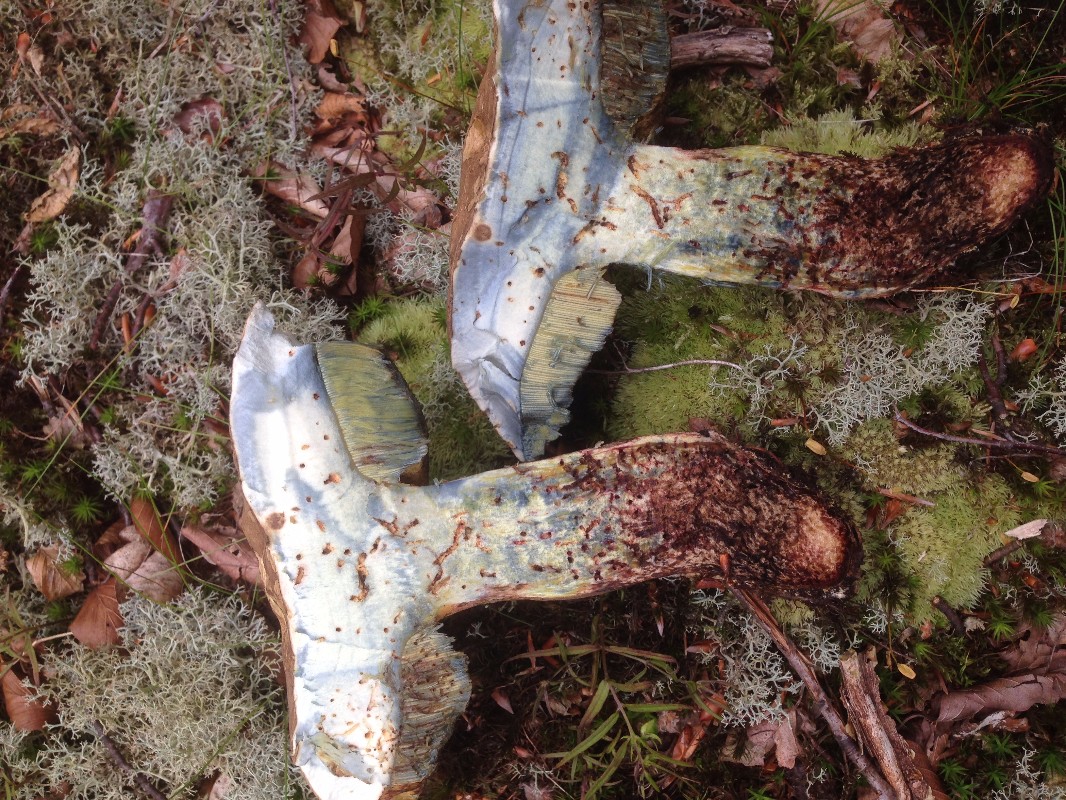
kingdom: Fungi
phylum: Basidiomycota
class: Agaricomycetes
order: Boletales
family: Boletaceae
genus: Caloboletus
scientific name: Caloboletus calopus
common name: skønfodet rørhat
